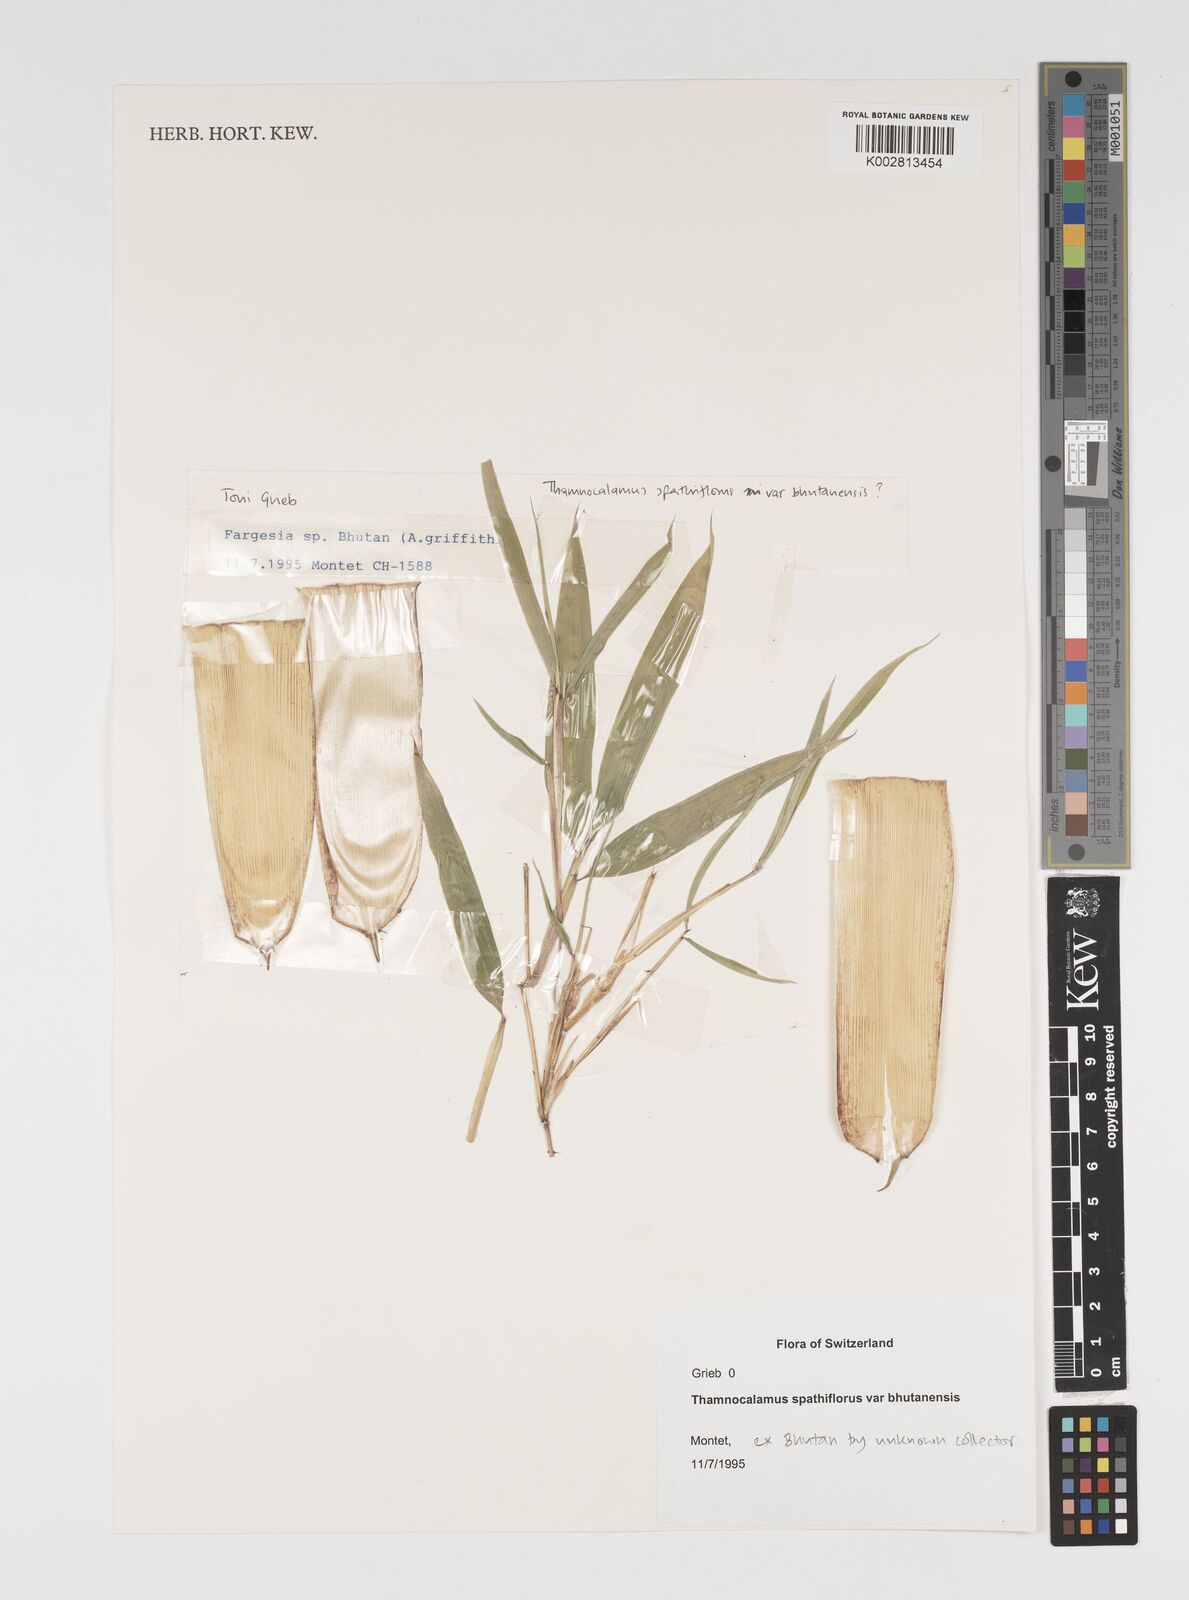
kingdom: Plantae
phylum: Tracheophyta
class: Liliopsida
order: Poales
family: Poaceae
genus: Thamnocalamus
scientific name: Thamnocalamus spathiflorus
